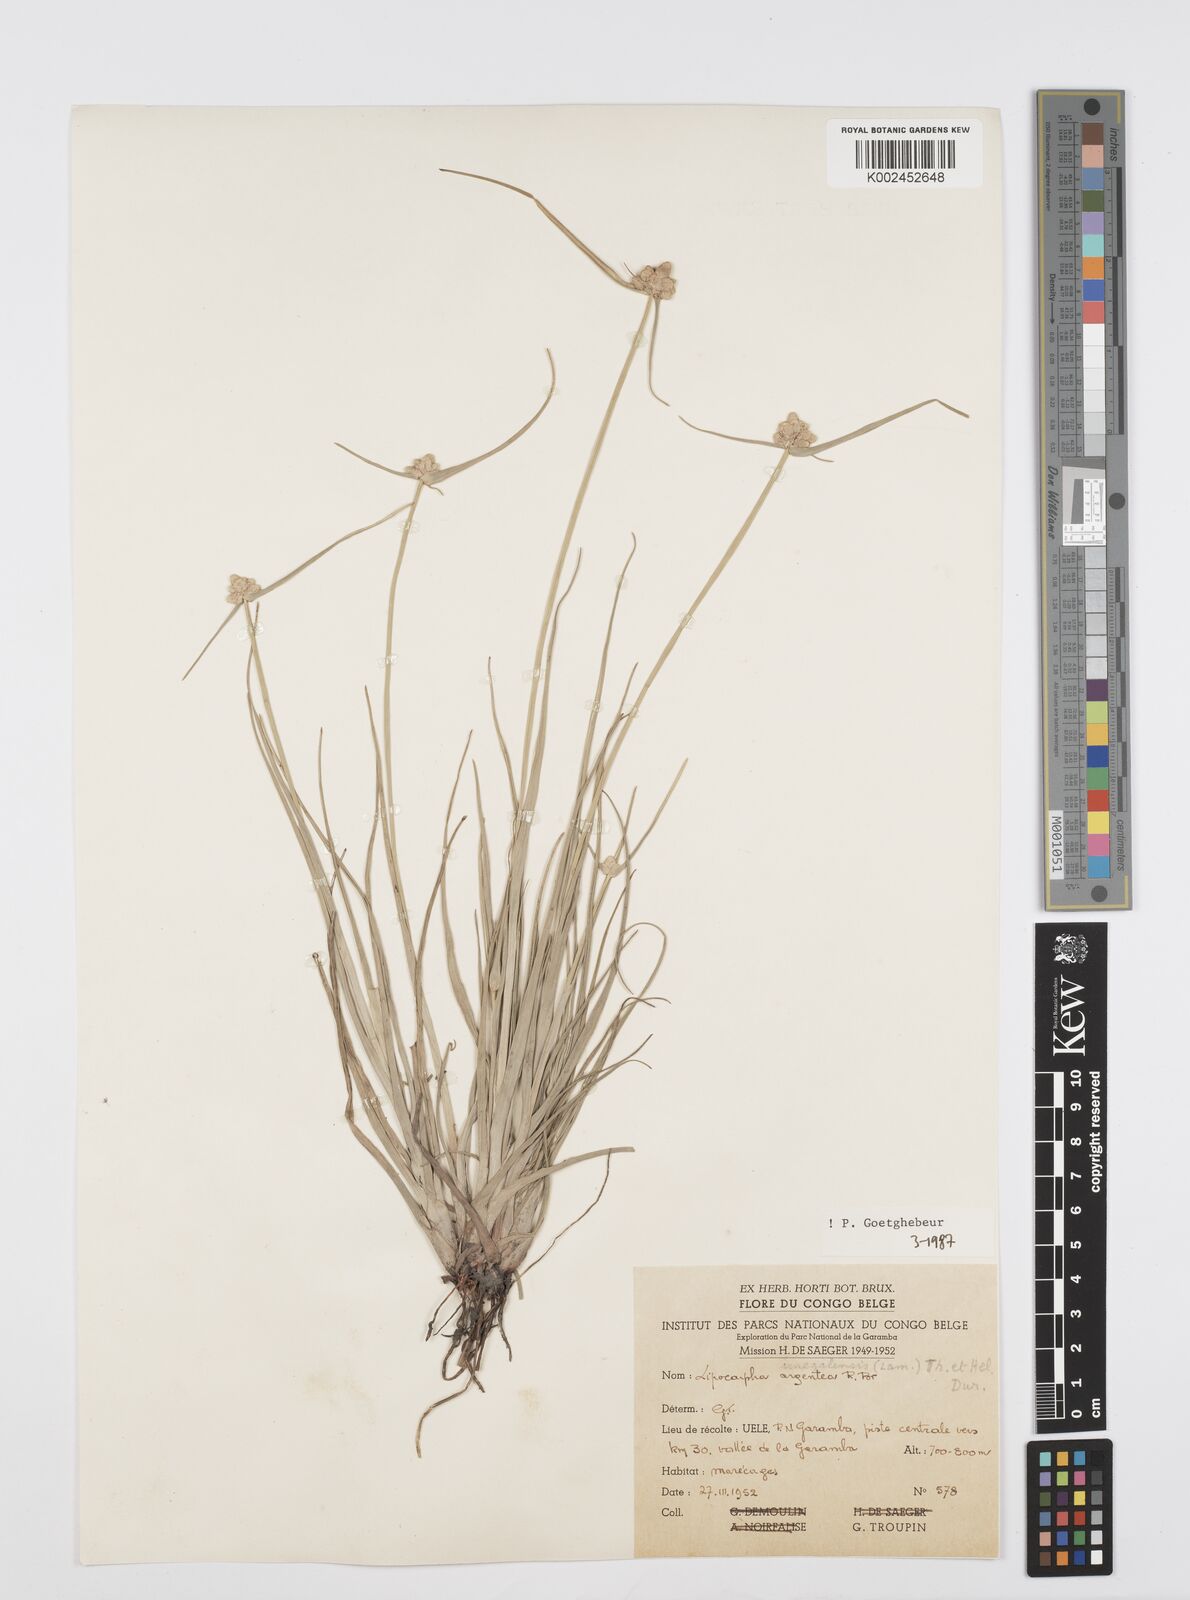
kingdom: Plantae
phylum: Tracheophyta
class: Liliopsida
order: Poales
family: Cyperaceae
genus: Cyperus
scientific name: Cyperus albescens
